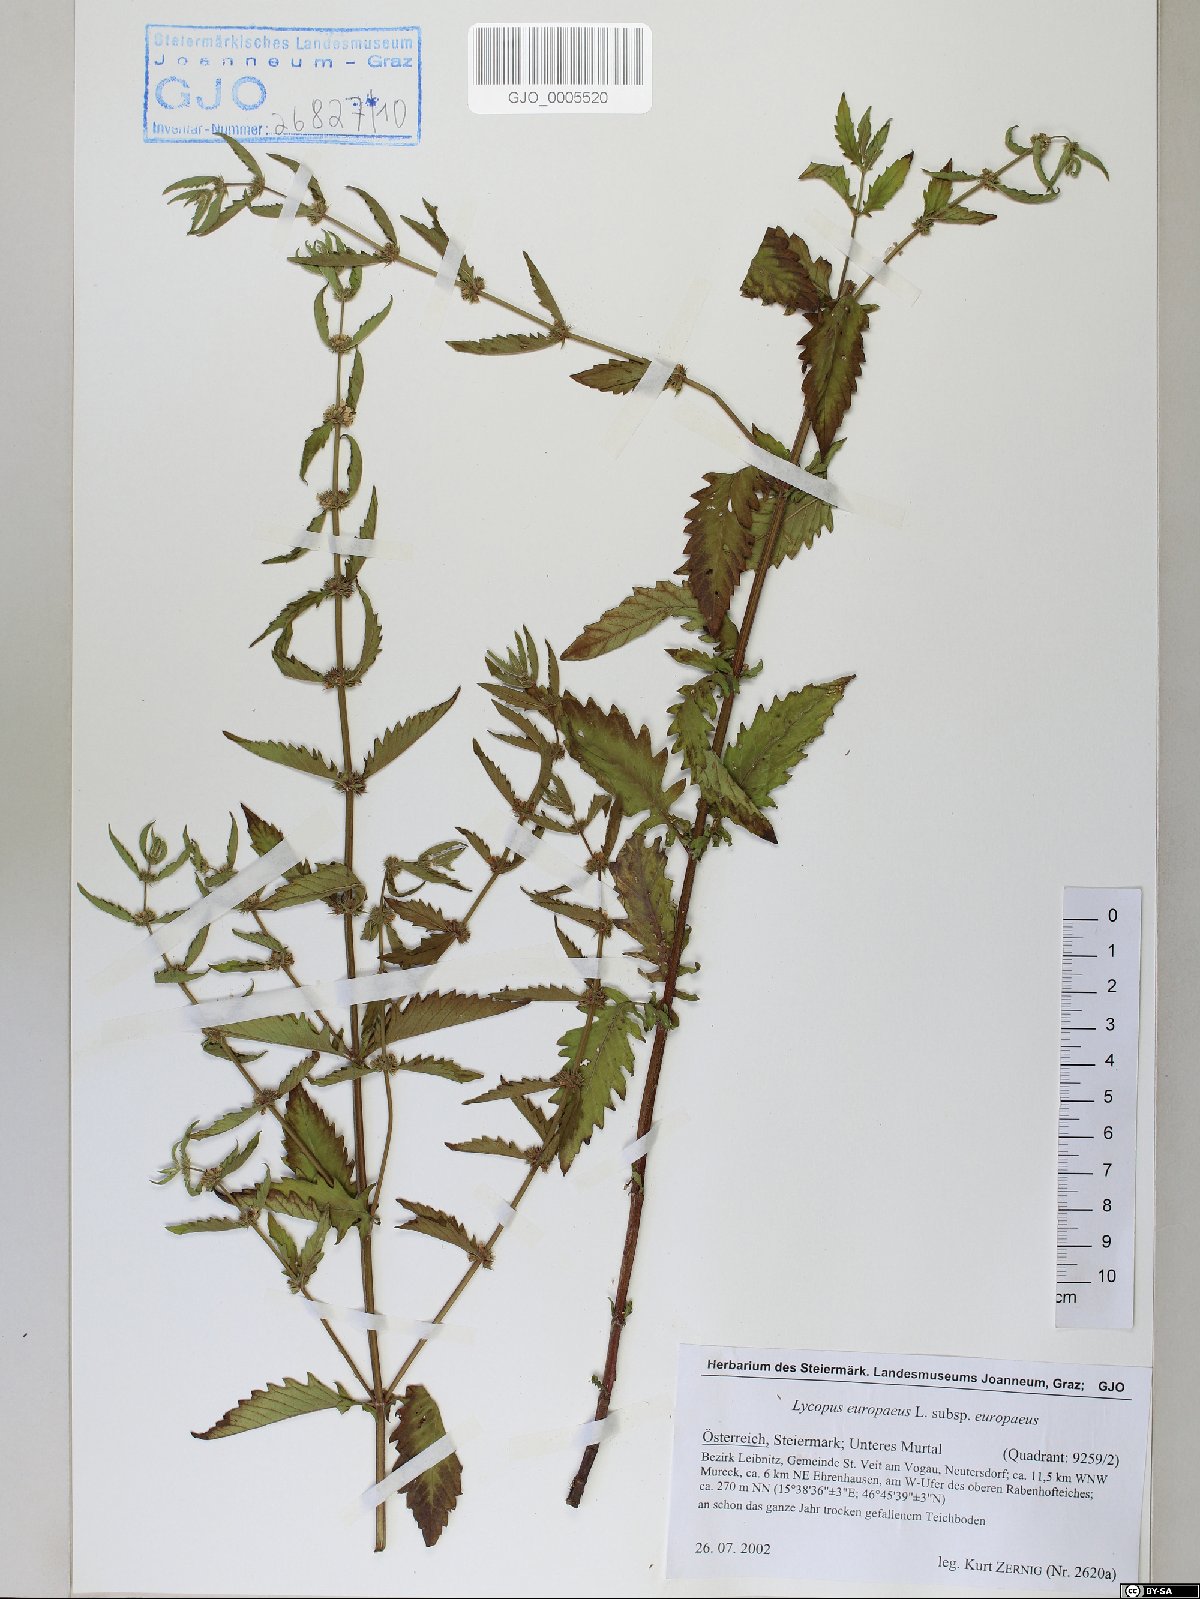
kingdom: Plantae
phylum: Tracheophyta
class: Magnoliopsida
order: Lamiales
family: Lamiaceae
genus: Lycopus
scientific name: Lycopus europaeus
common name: European bugleweed
